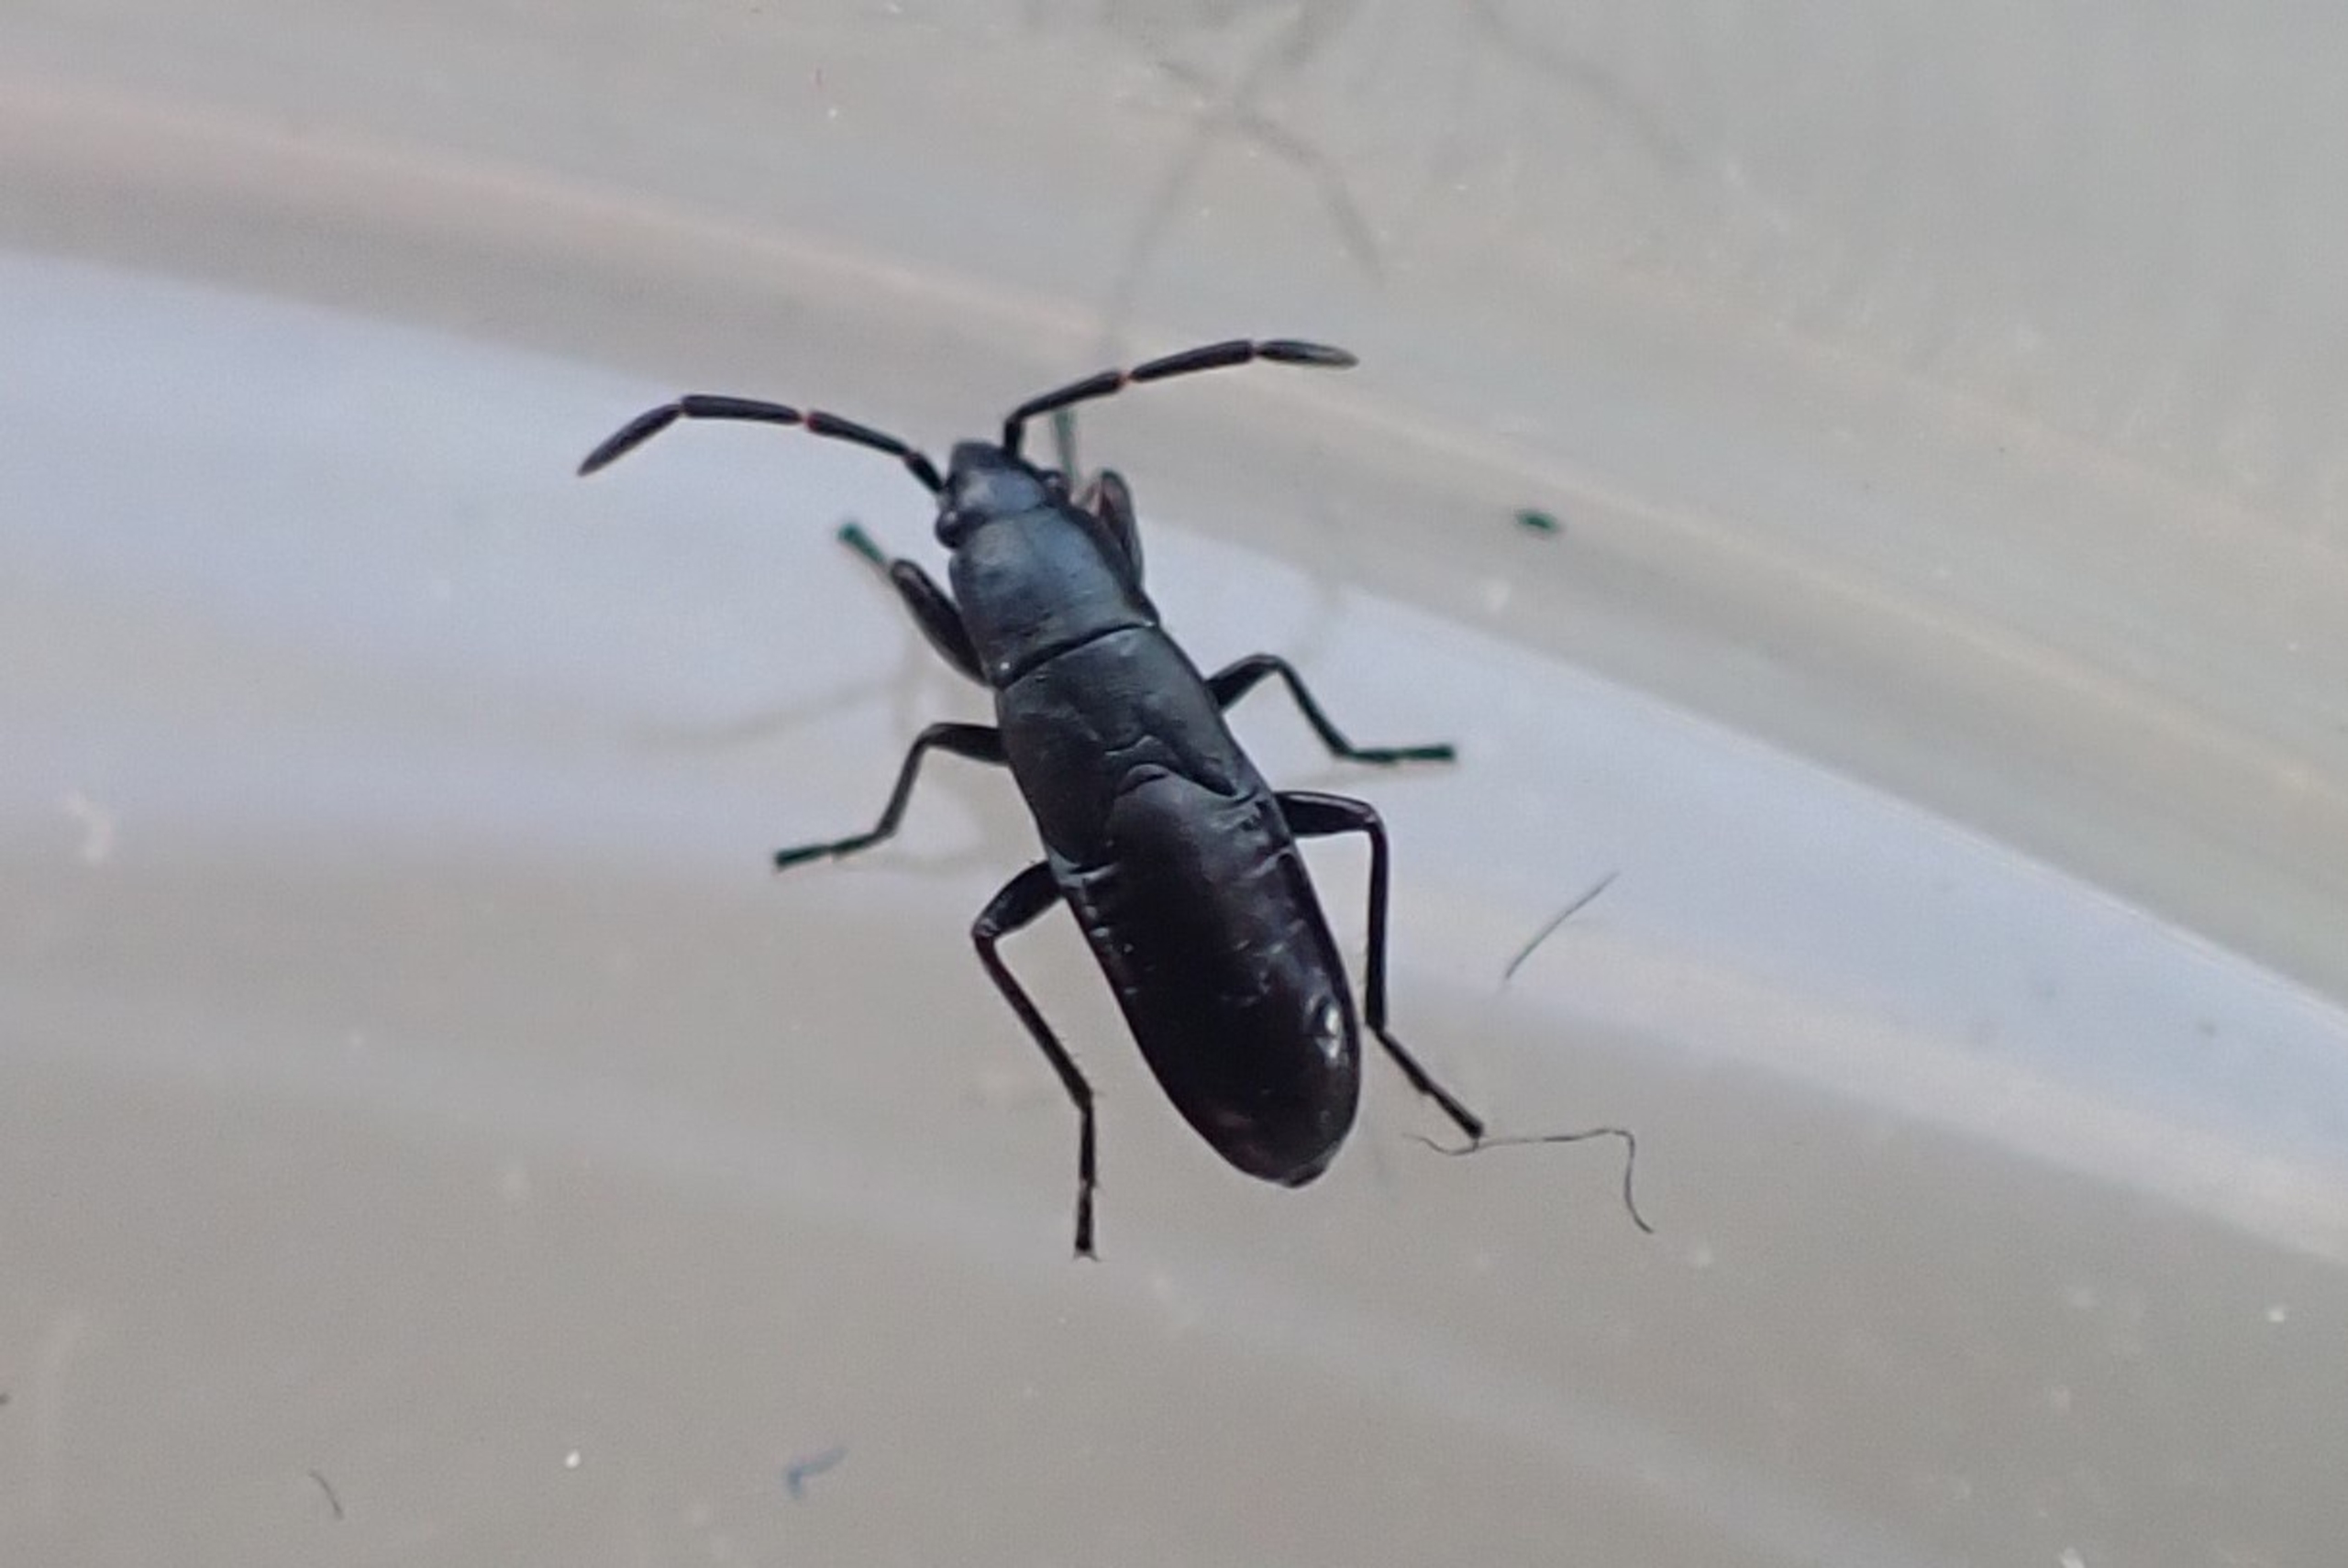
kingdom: Animalia
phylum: Arthropoda
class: Insecta
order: Hemiptera
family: Rhyparochromidae
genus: Pterotmetus
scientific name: Pterotmetus staphyliniformis
